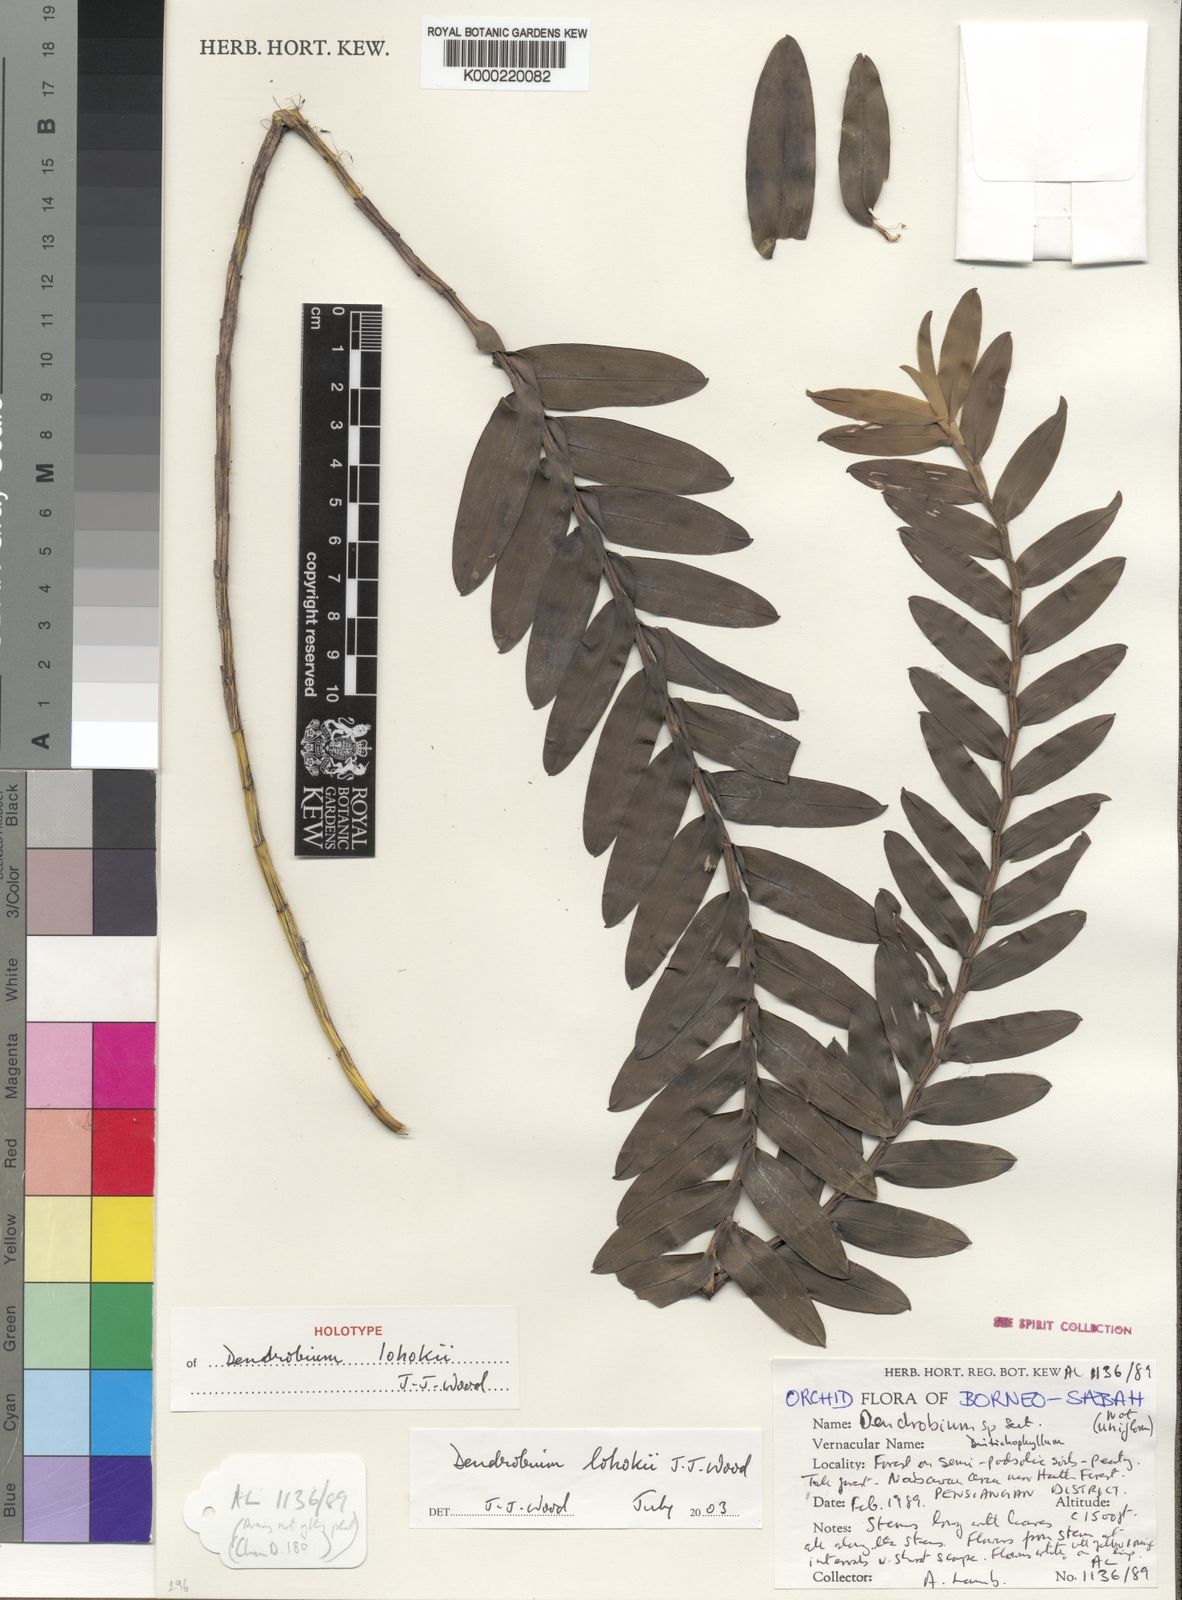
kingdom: Plantae
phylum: Tracheophyta
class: Liliopsida
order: Asparagales
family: Orchidaceae
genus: Dendrobium
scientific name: Dendrobium lohokii
